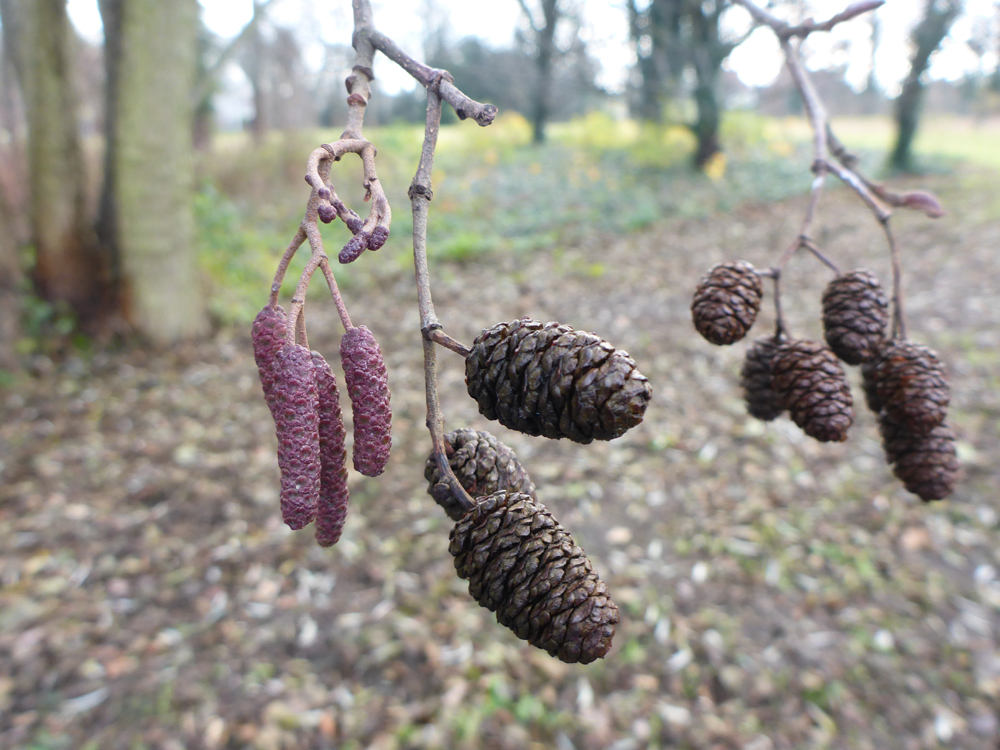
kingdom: Plantae
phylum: Tracheophyta
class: Magnoliopsida
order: Fagales
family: Betulaceae
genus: Alnus
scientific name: Alnus glutinosa
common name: Black alder
